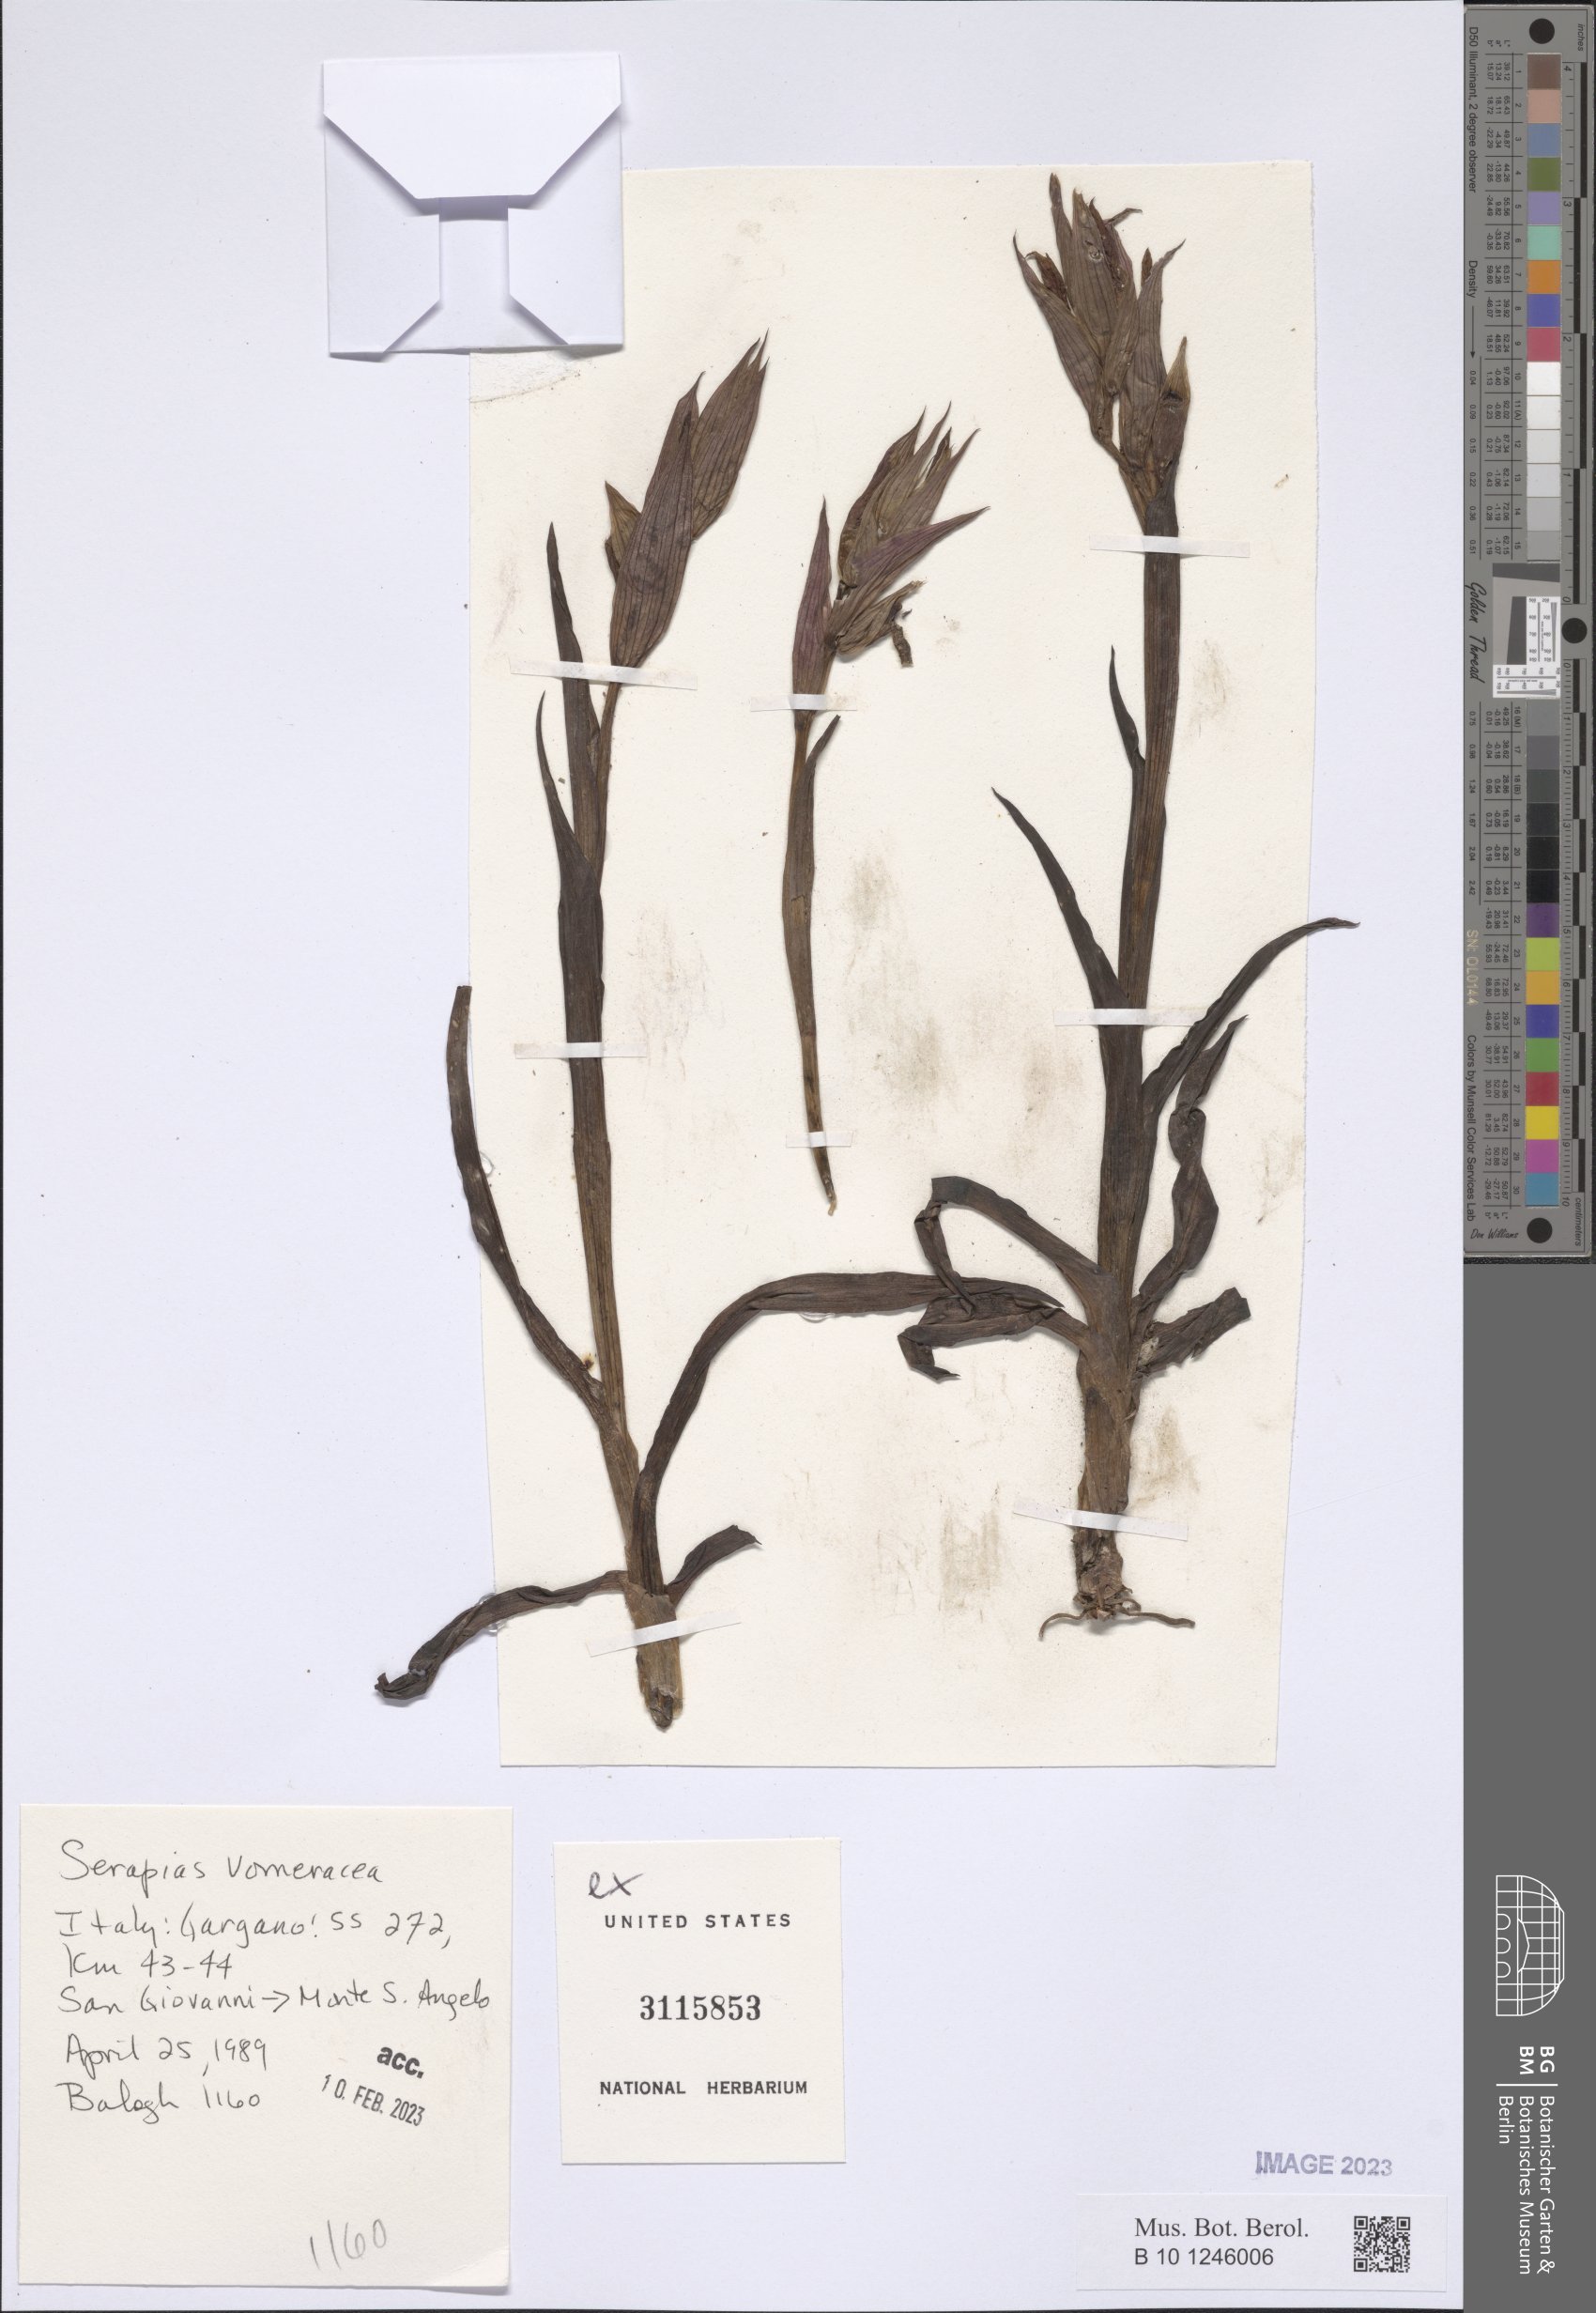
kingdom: Plantae
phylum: Tracheophyta
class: Liliopsida
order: Asparagales
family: Orchidaceae
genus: Serapias
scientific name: Serapias vomeracea
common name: Long-lipped tongue-orchid
